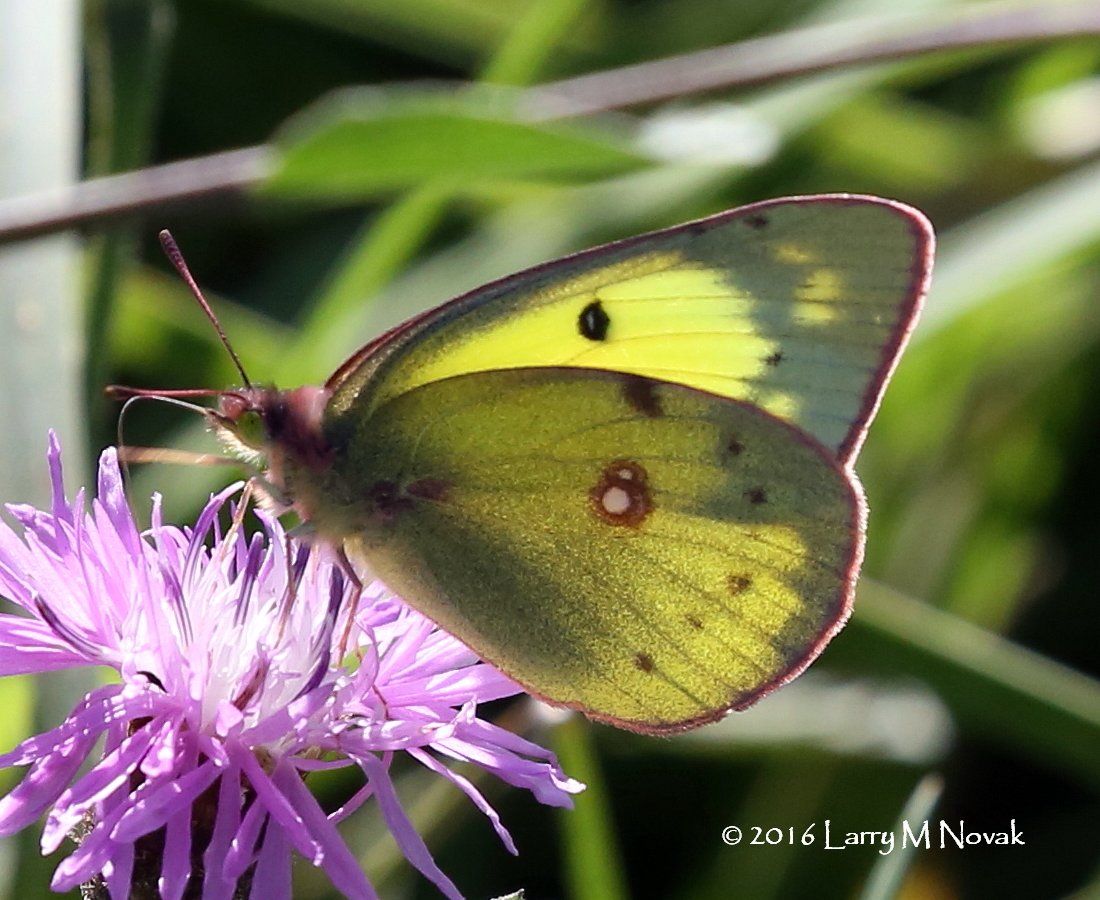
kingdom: Animalia
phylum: Arthropoda
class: Insecta
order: Lepidoptera
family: Pieridae
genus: Colias
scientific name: Colias philodice
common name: Clouded Sulphur
